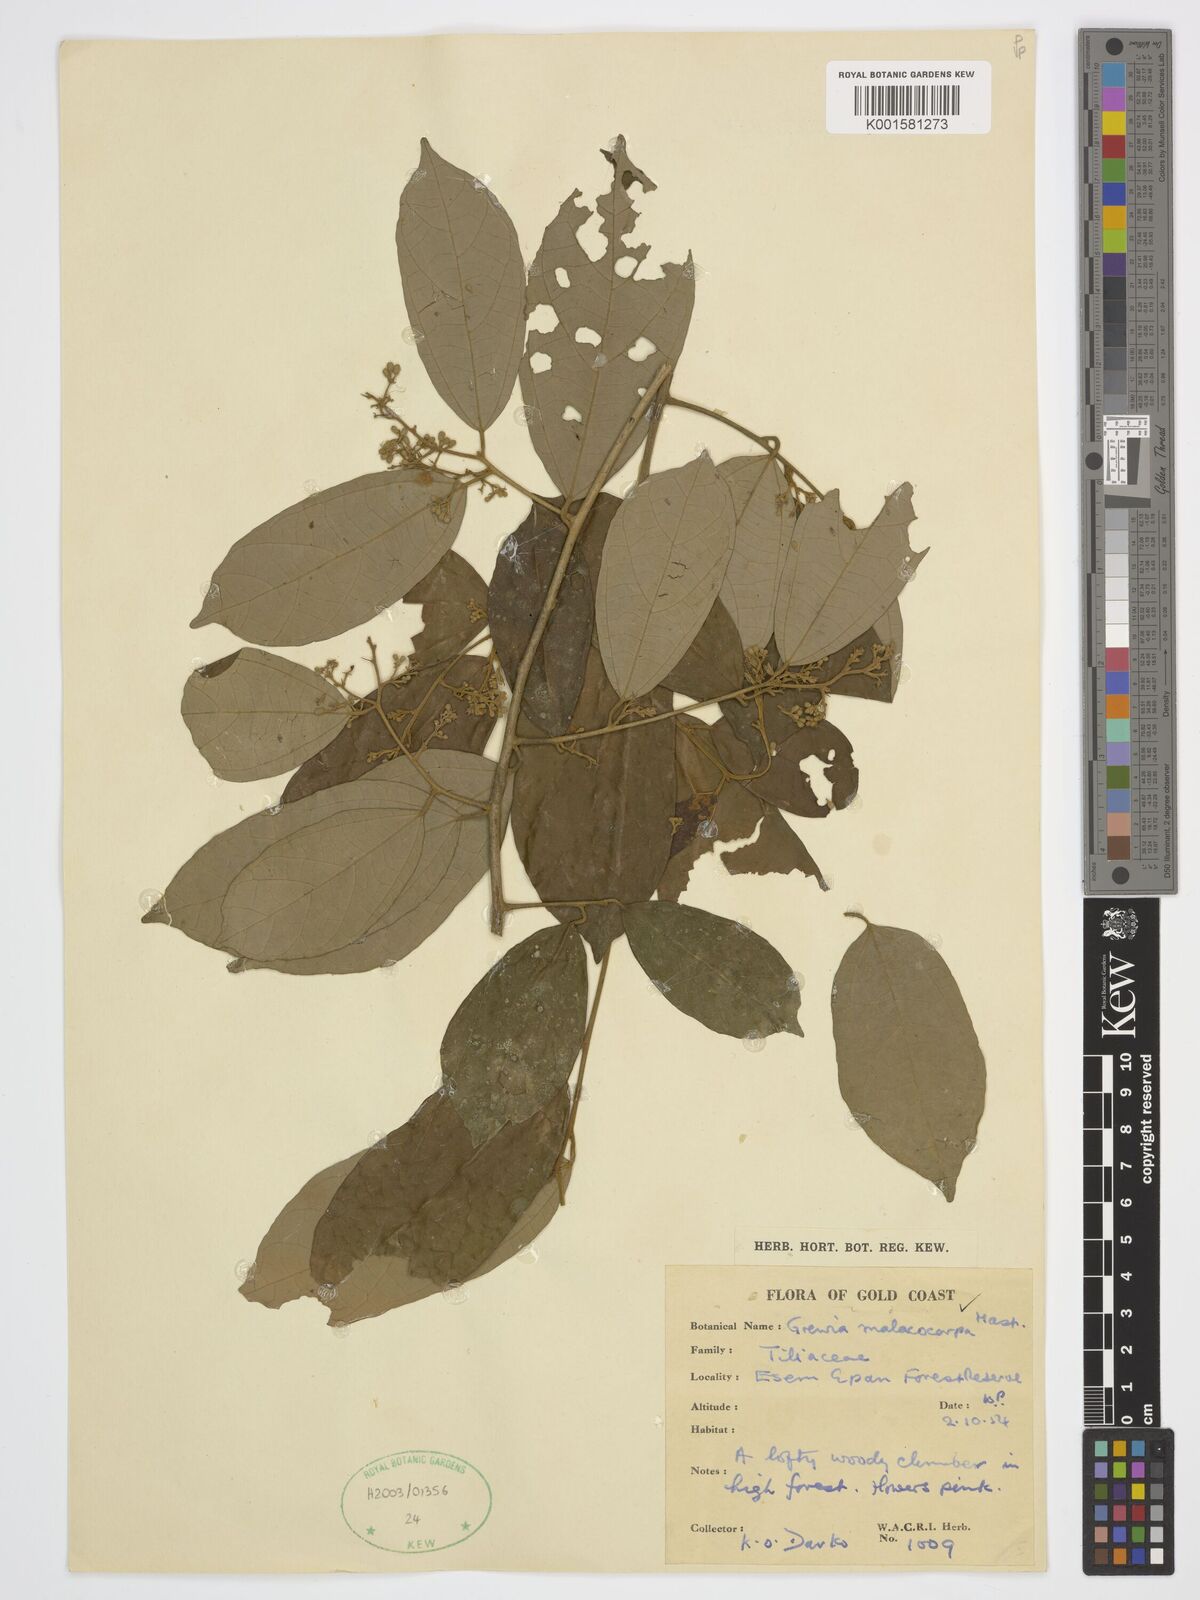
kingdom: Plantae
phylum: Tracheophyta
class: Magnoliopsida
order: Malvales
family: Malvaceae
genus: Microcos
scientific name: Microcos malacocarpa
